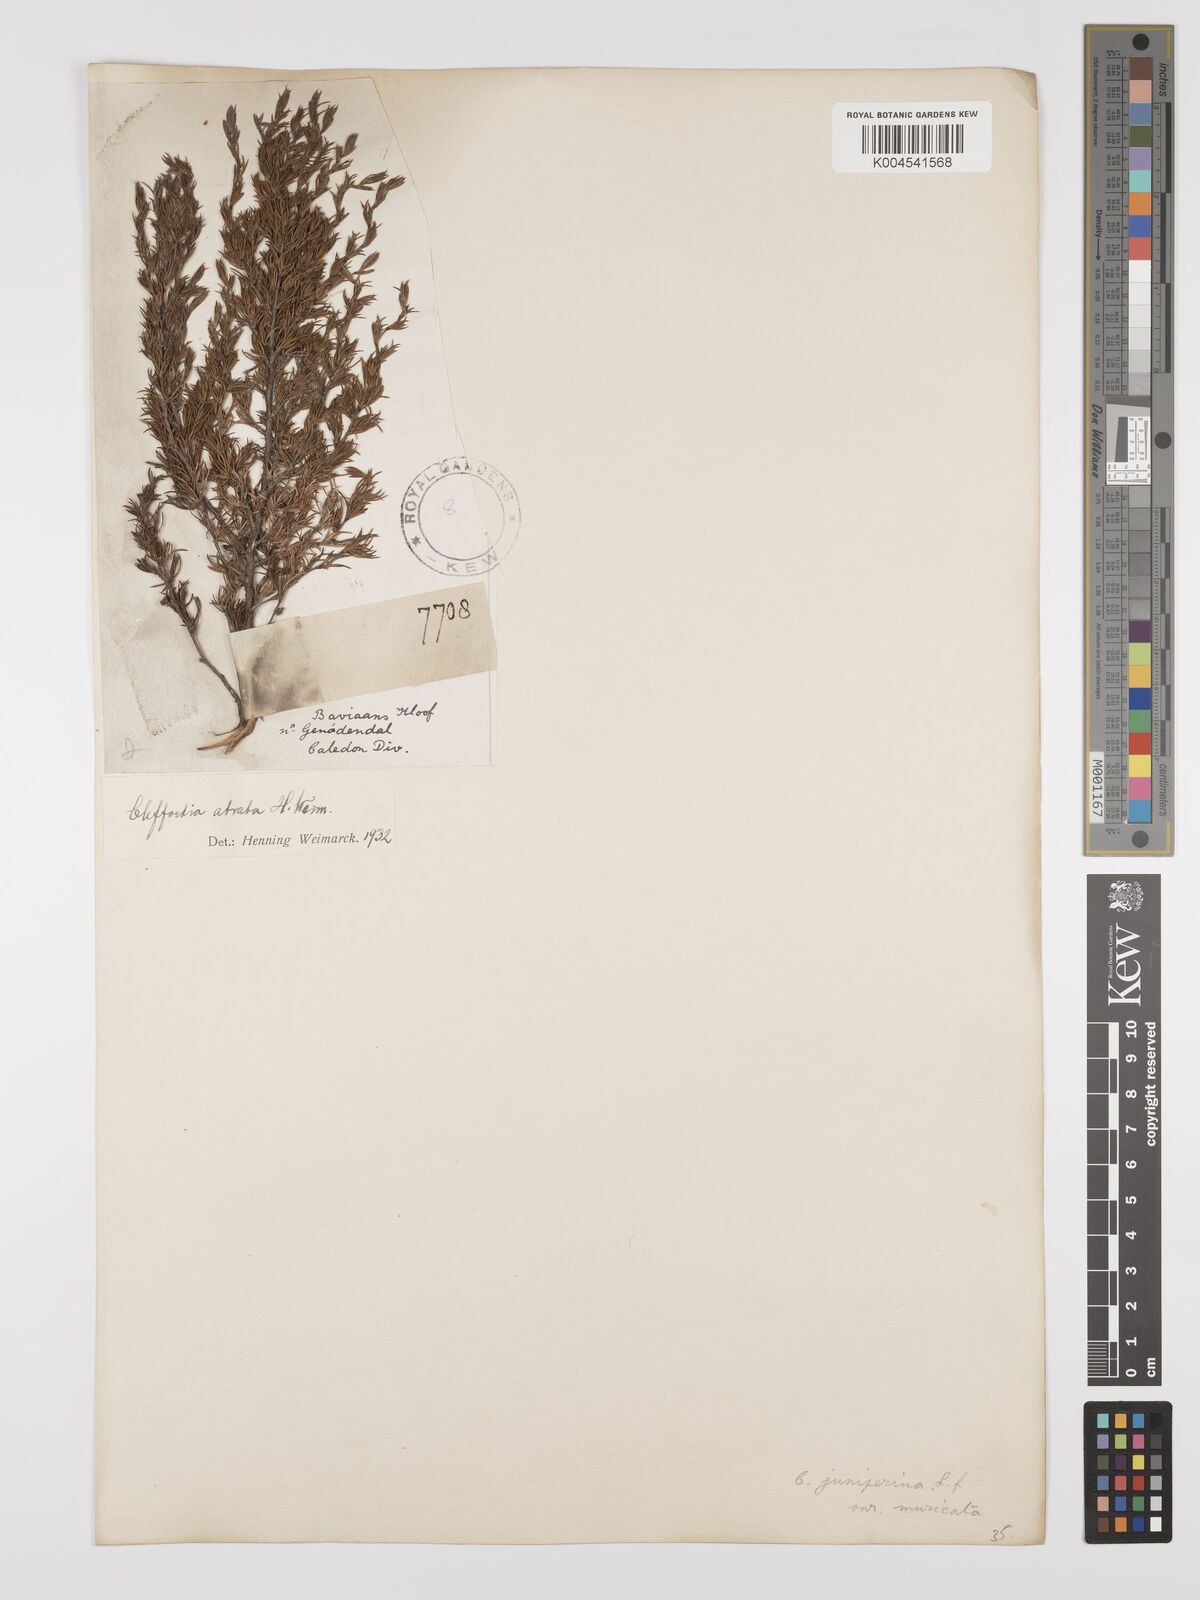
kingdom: Plantae
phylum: Tracheophyta
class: Magnoliopsida
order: Rosales
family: Rosaceae
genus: Cliffortia
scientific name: Cliffortia atrata
